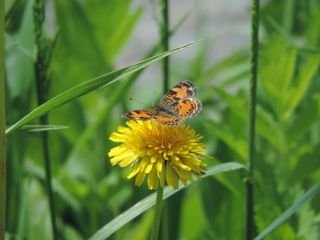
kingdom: Animalia
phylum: Arthropoda
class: Insecta
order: Lepidoptera
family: Nymphalidae
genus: Phyciodes
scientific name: Phyciodes tharos
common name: Pearl Crescent
